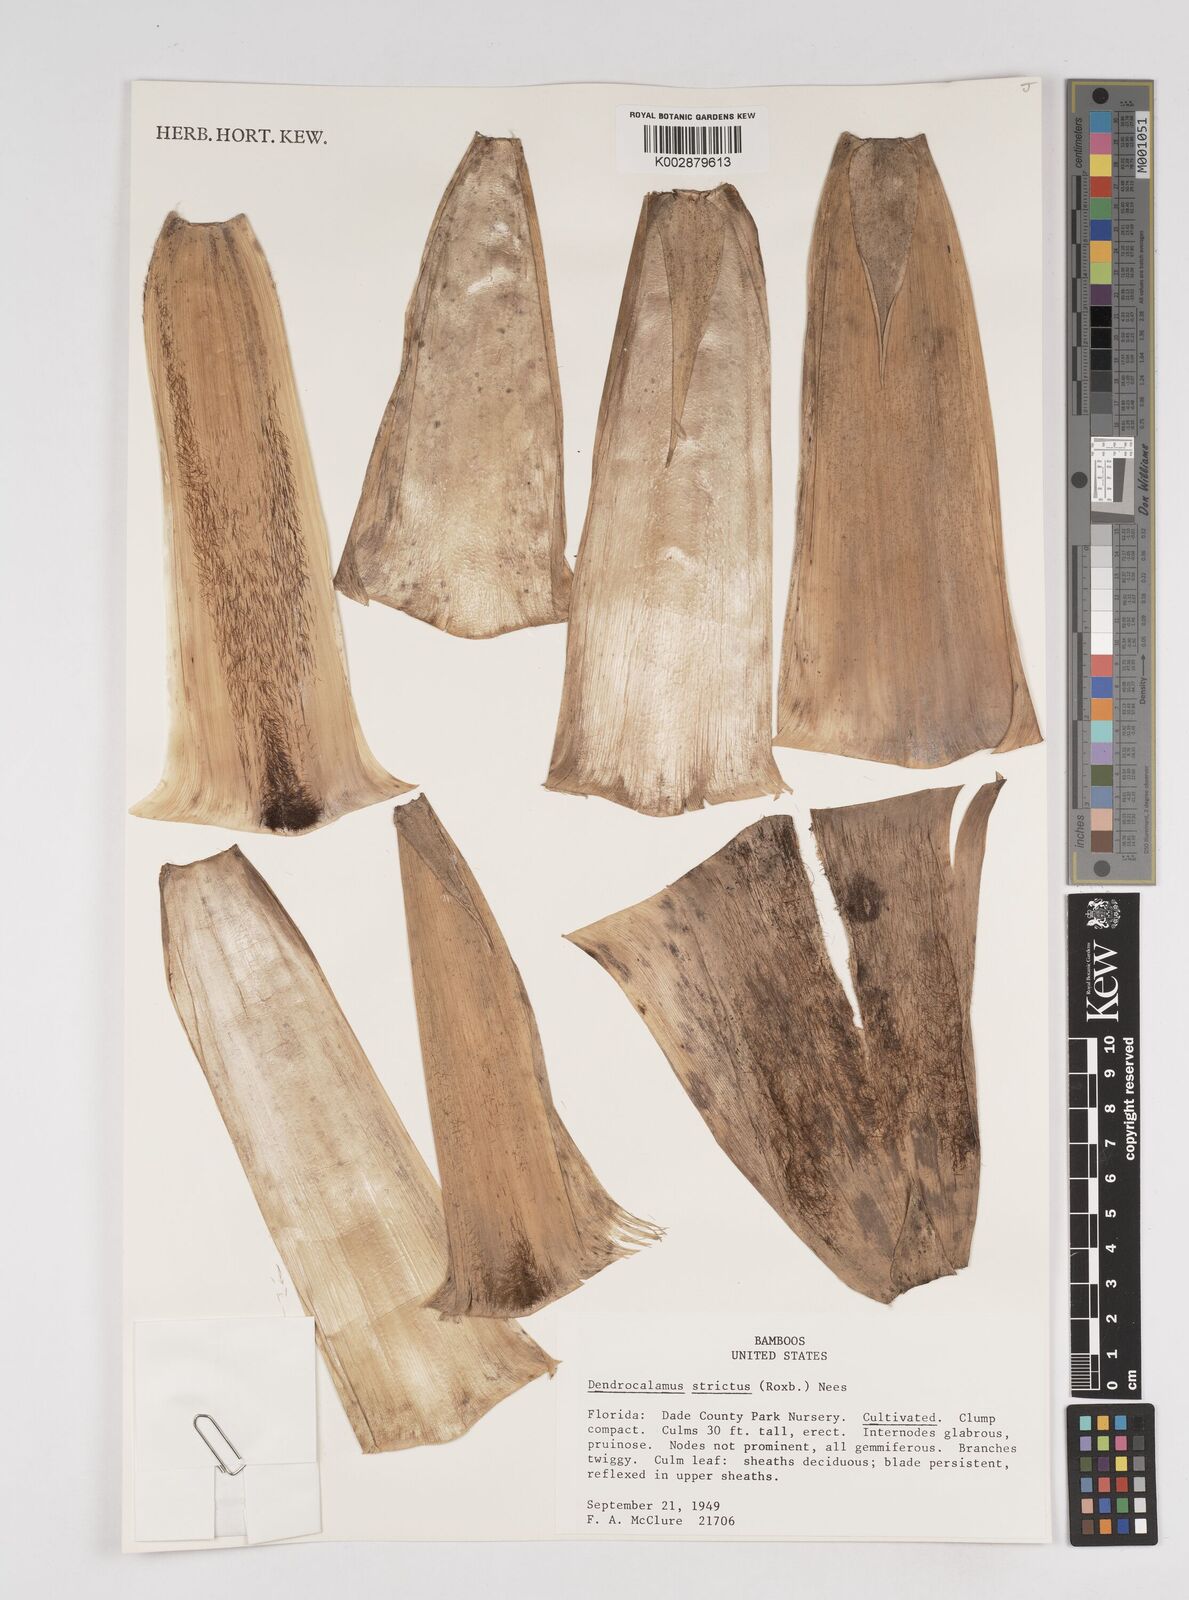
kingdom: Plantae
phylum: Tracheophyta
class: Liliopsida
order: Poales
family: Poaceae
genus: Dendrocalamus
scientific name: Dendrocalamus strictus
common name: Male bamboo
